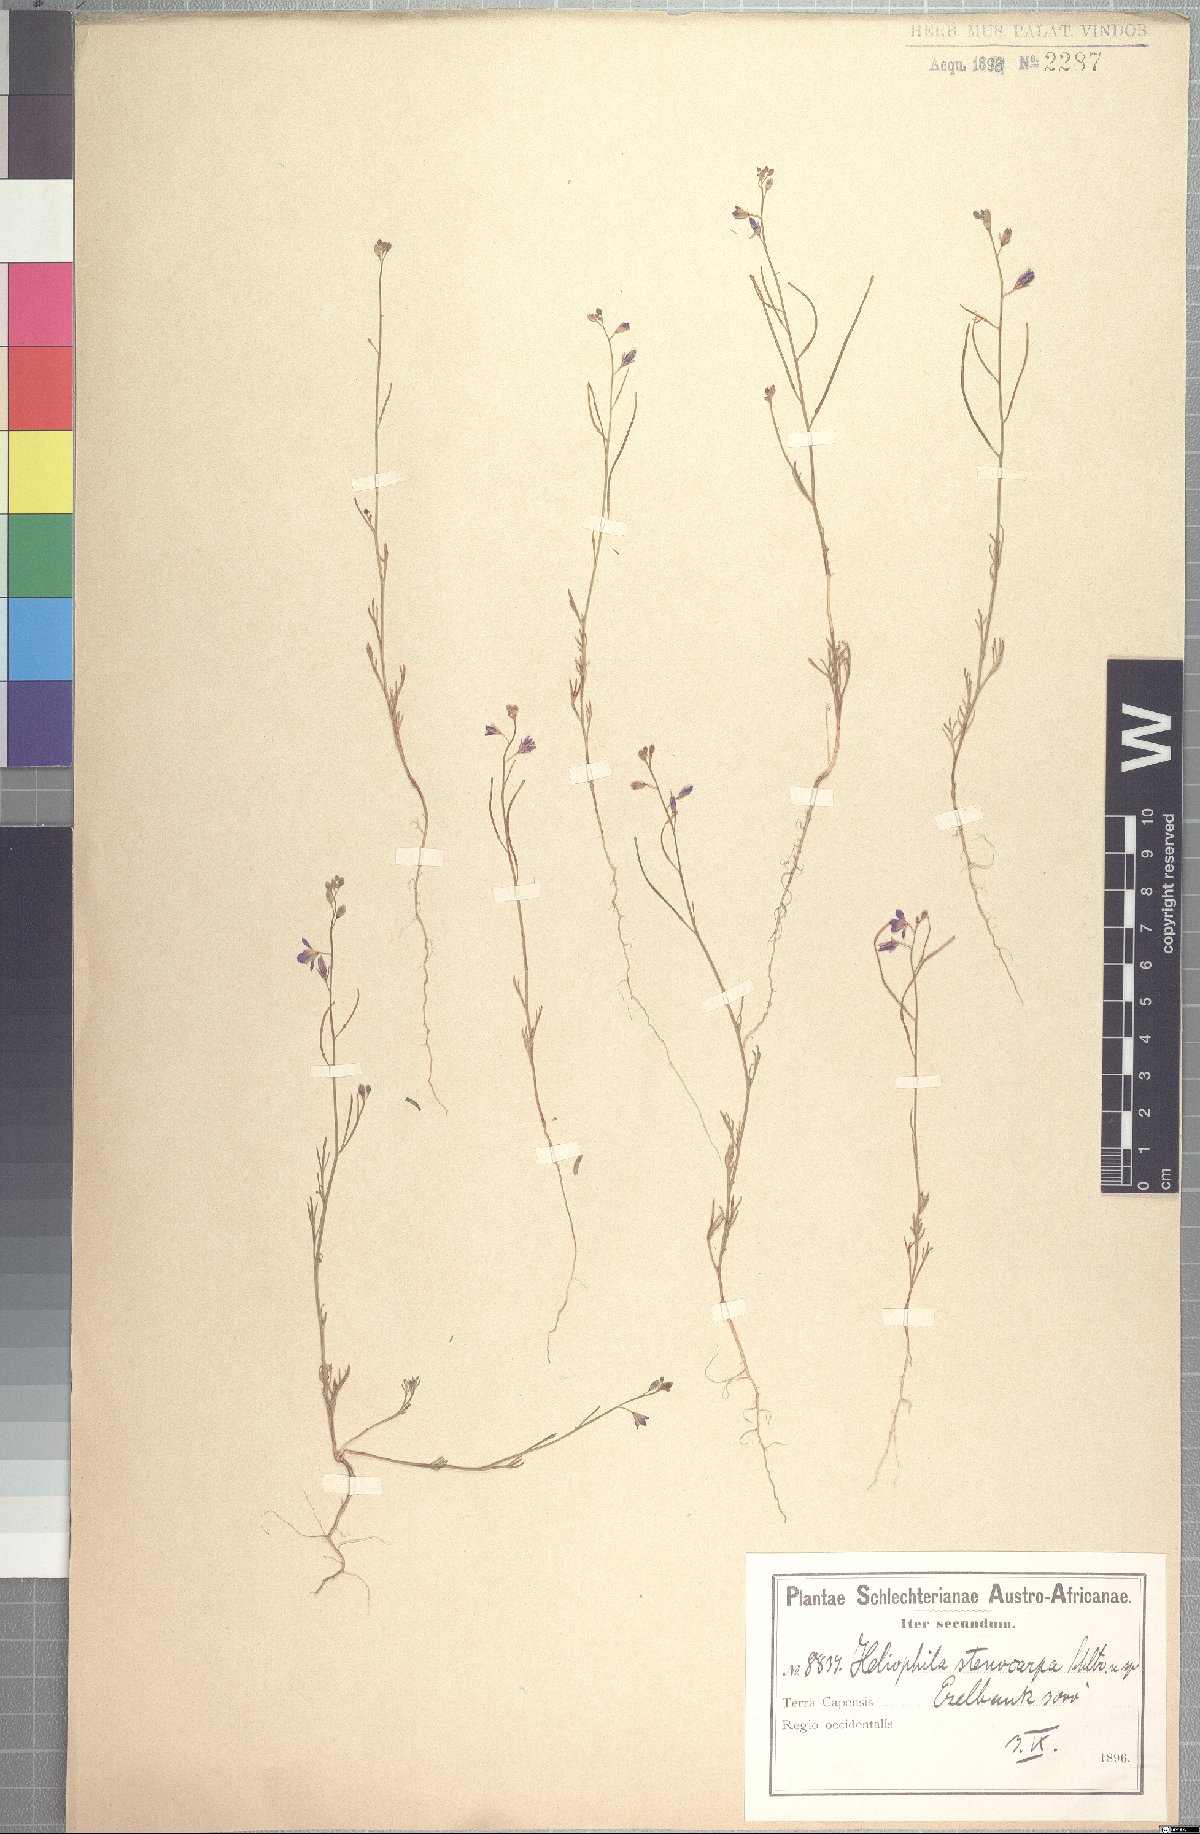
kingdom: Plantae
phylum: Tracheophyta
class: Magnoliopsida
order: Brassicales
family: Brassicaceae
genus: Heliophila
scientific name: Heliophila arenosa
